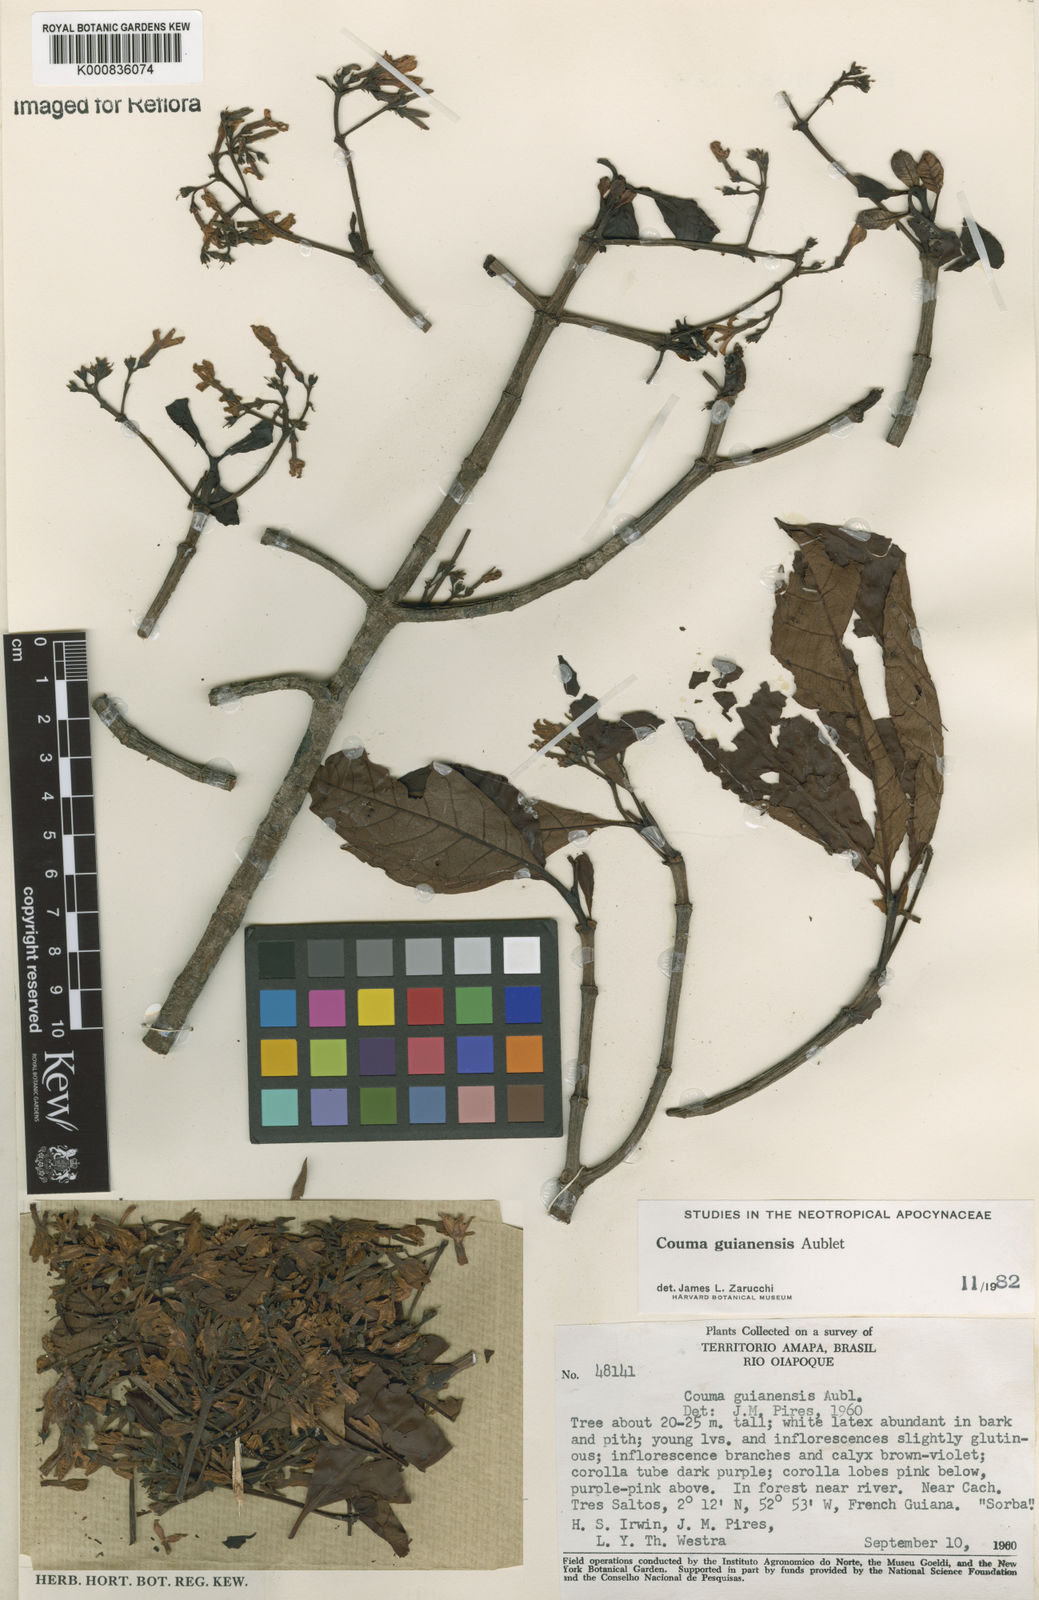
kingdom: Plantae
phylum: Tracheophyta
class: Magnoliopsida
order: Gentianales
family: Apocynaceae
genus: Couma
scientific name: Couma guianensis
